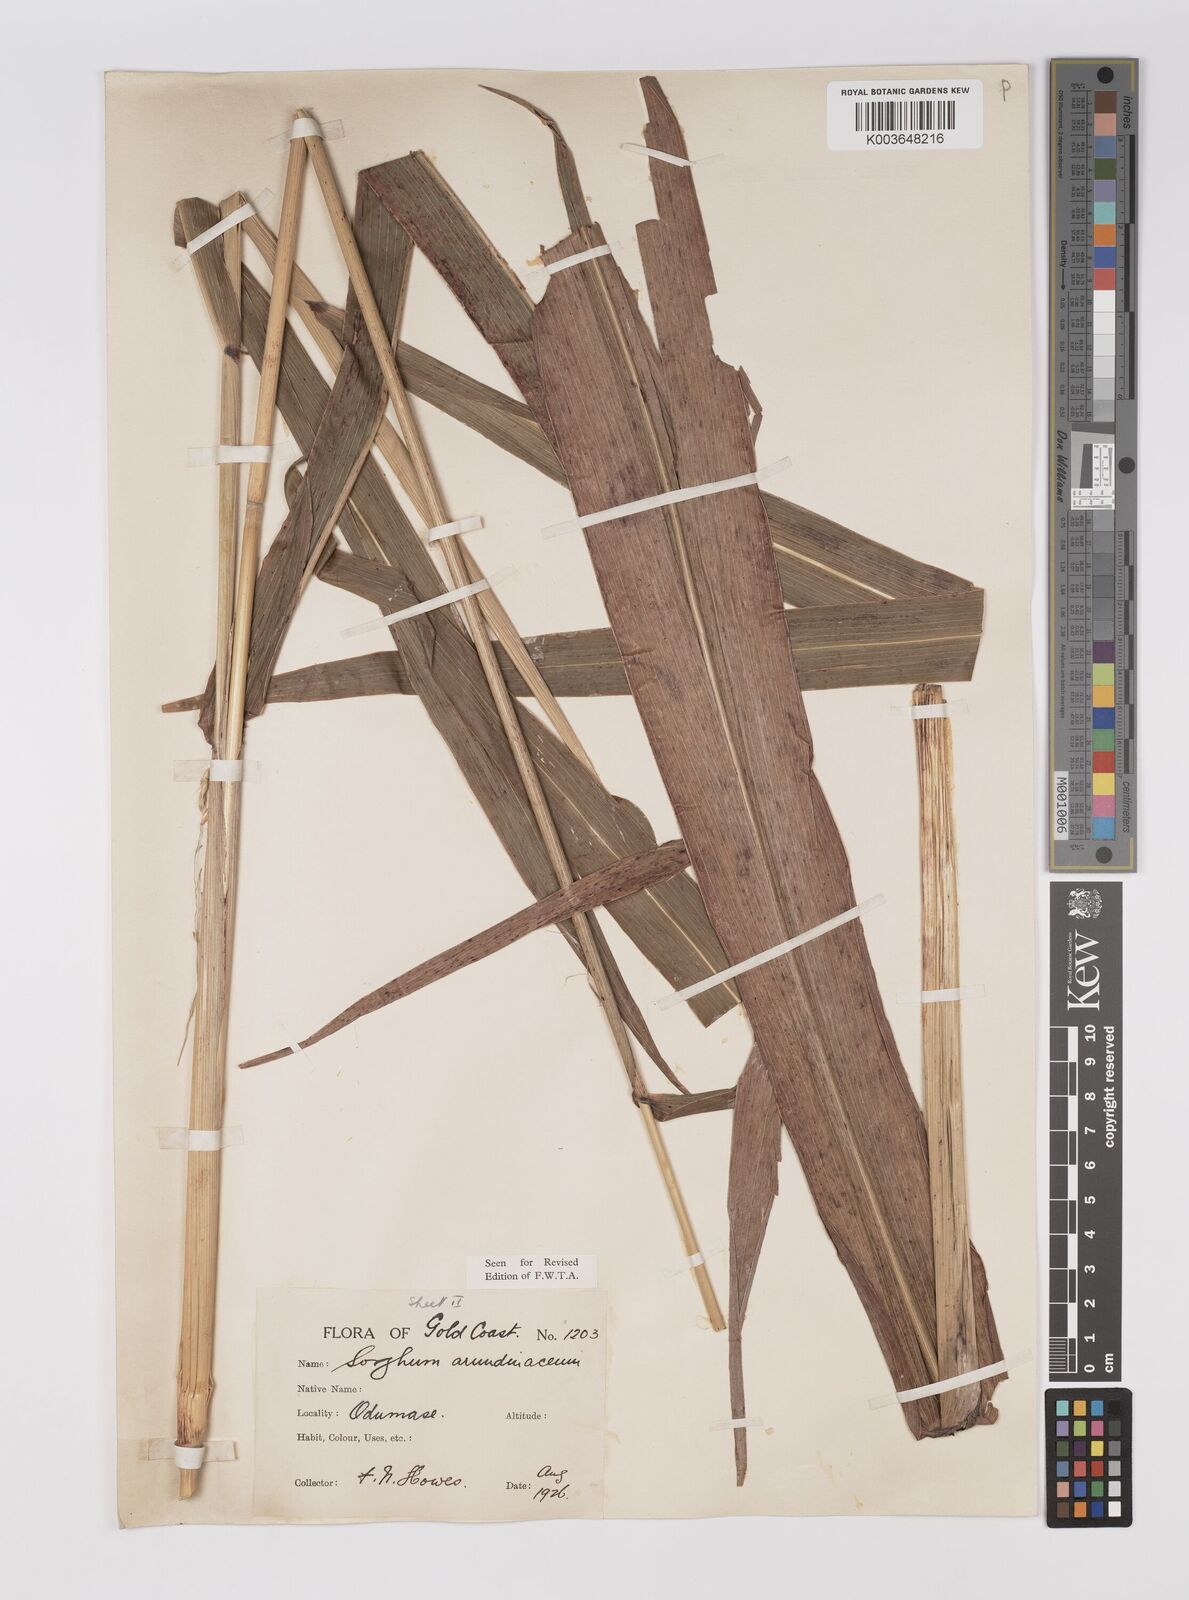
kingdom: Plantae
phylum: Tracheophyta
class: Liliopsida
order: Poales
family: Poaceae
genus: Sorghum
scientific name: Sorghum arundinaceum
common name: Sorghum
